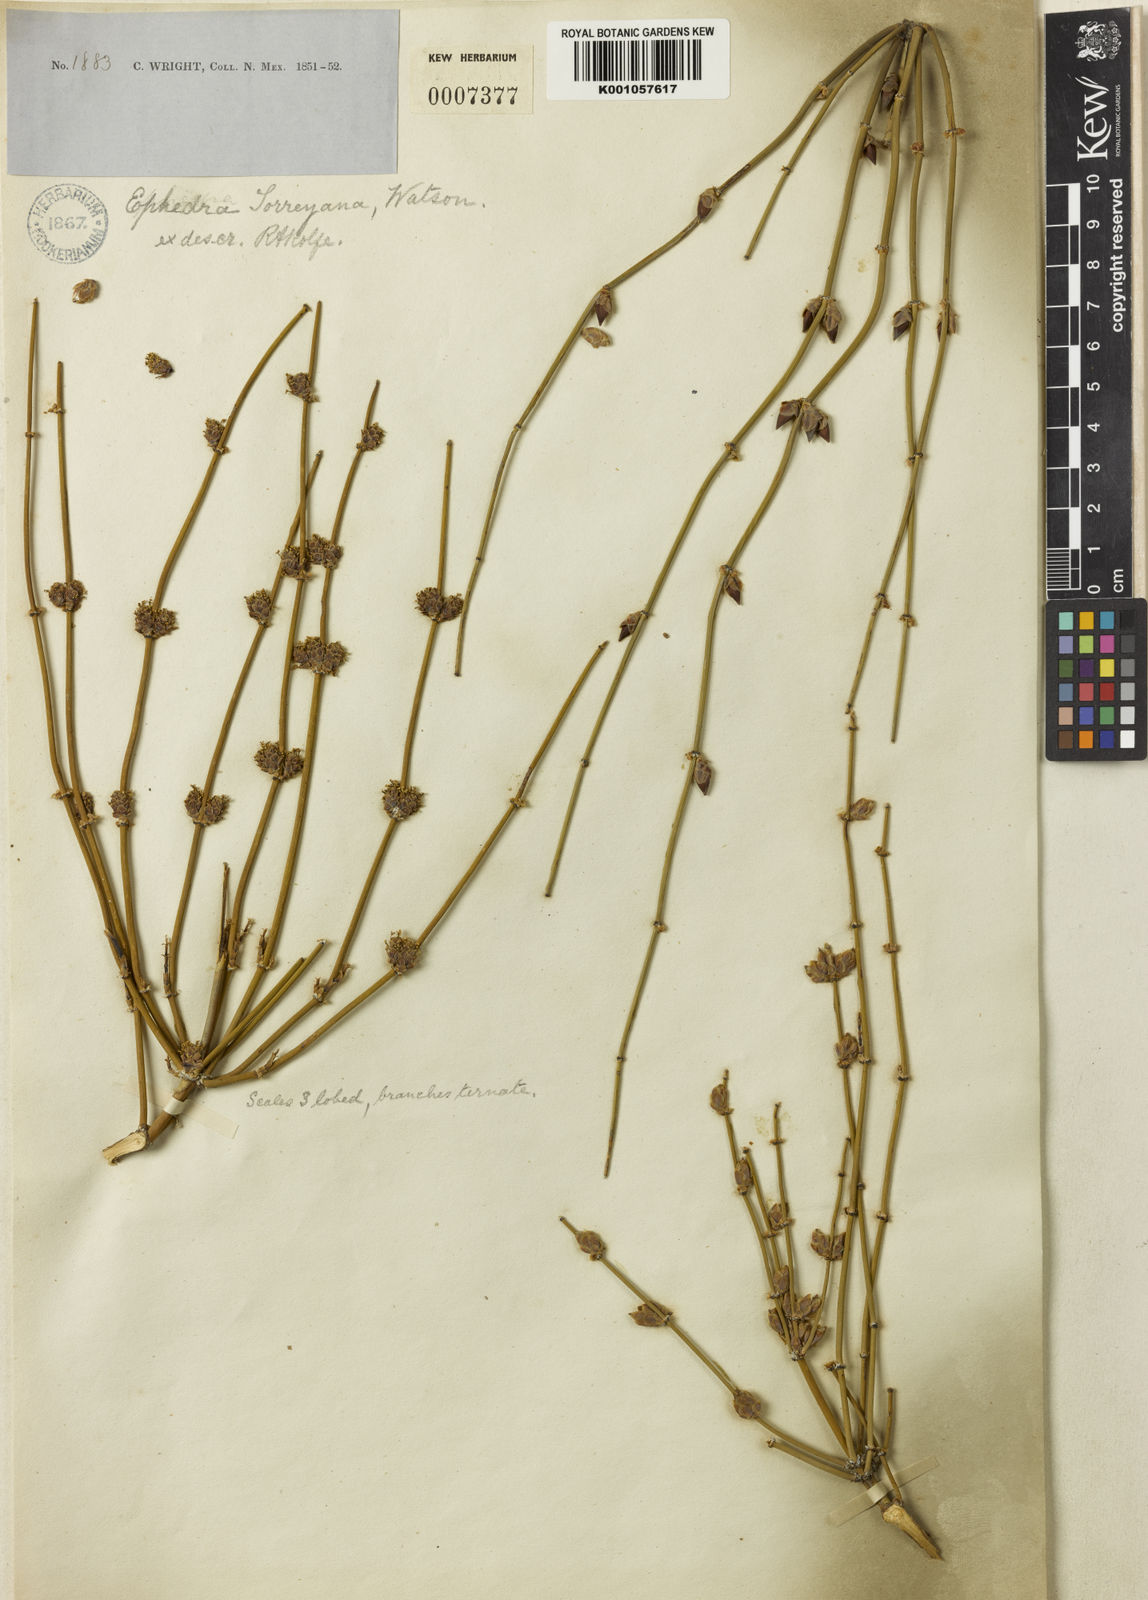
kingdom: Plantae
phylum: Tracheophyta
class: Gnetopsida
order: Ephedrales
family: Ephedraceae
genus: Ephedra
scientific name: Ephedra torreyana
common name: Torrey ephedra
